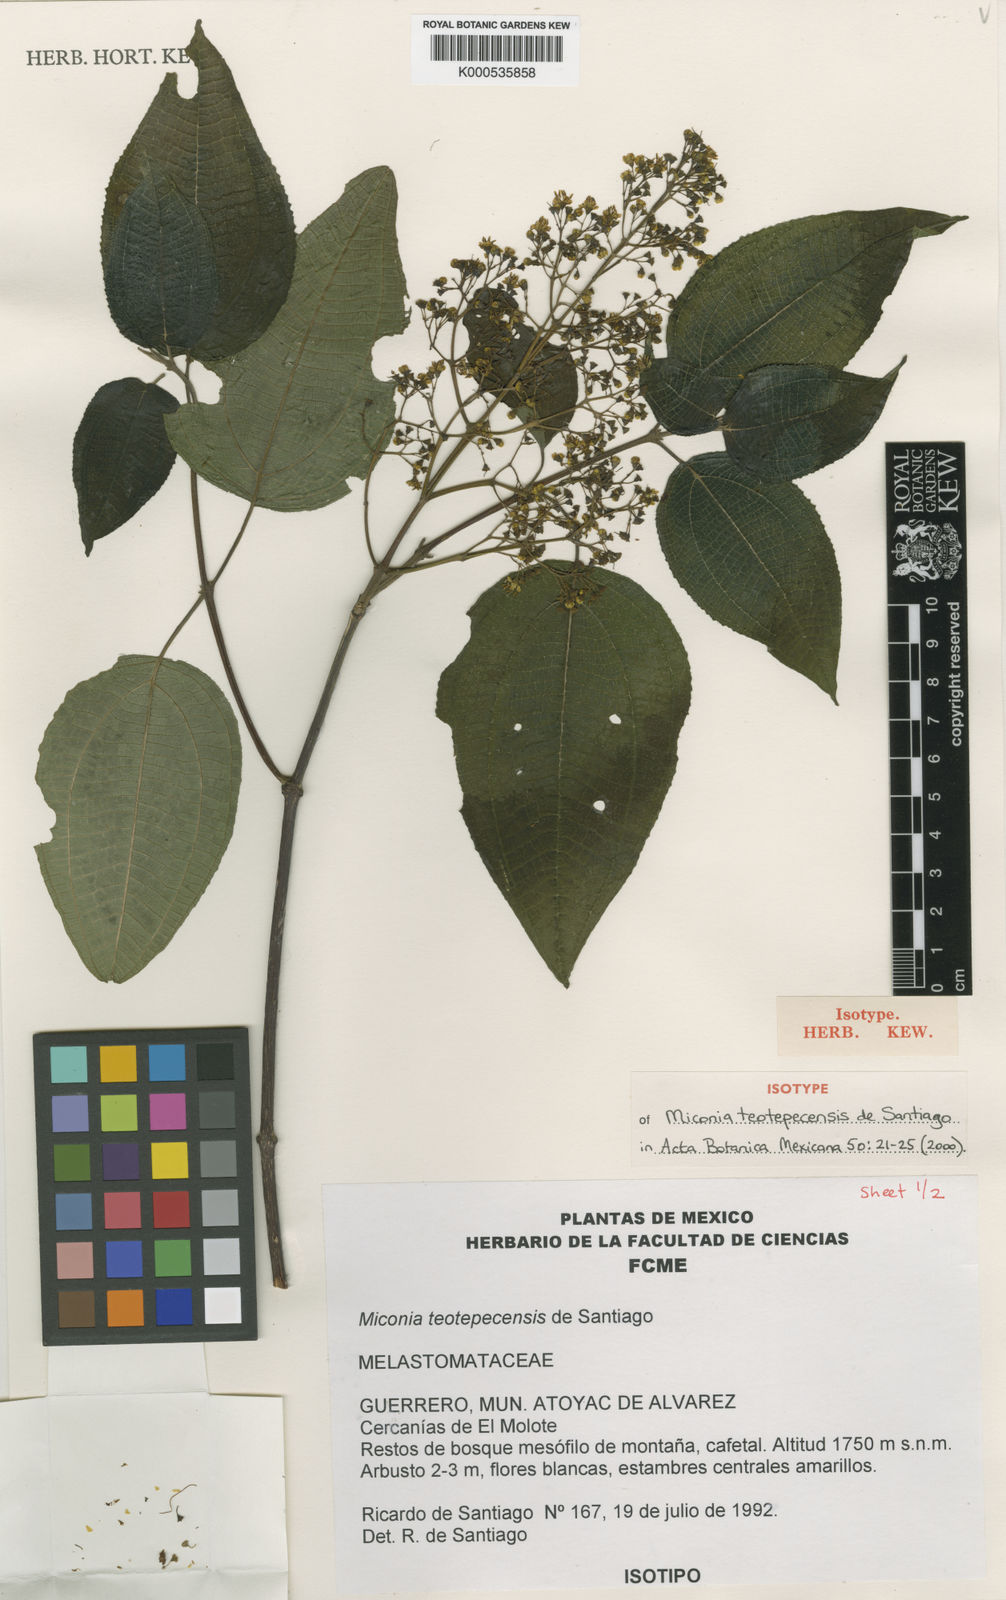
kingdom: Plantae
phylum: Tracheophyta
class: Magnoliopsida
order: Myrtales
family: Melastomataceae
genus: Miconia
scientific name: Miconia teotepecensis
